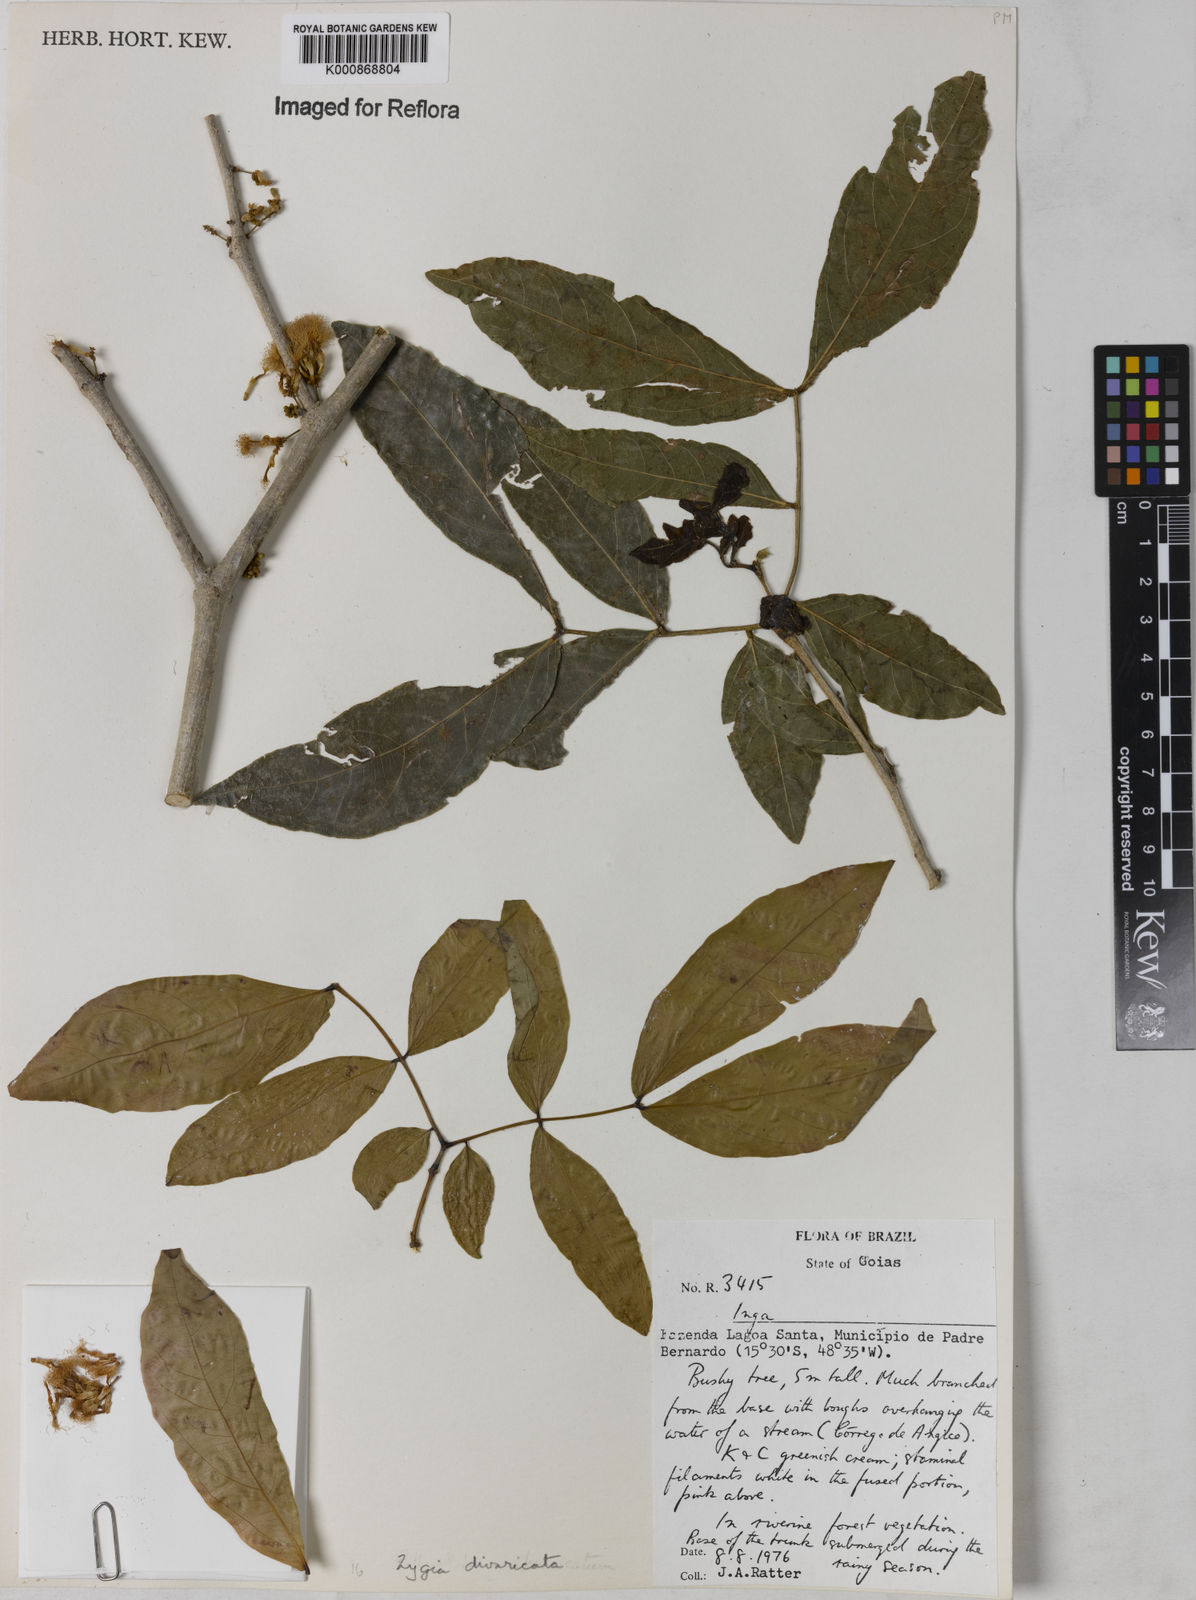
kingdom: Plantae
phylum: Tracheophyta
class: Magnoliopsida
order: Fabales
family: Fabaceae
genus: Zygia
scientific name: Zygia cataractae
